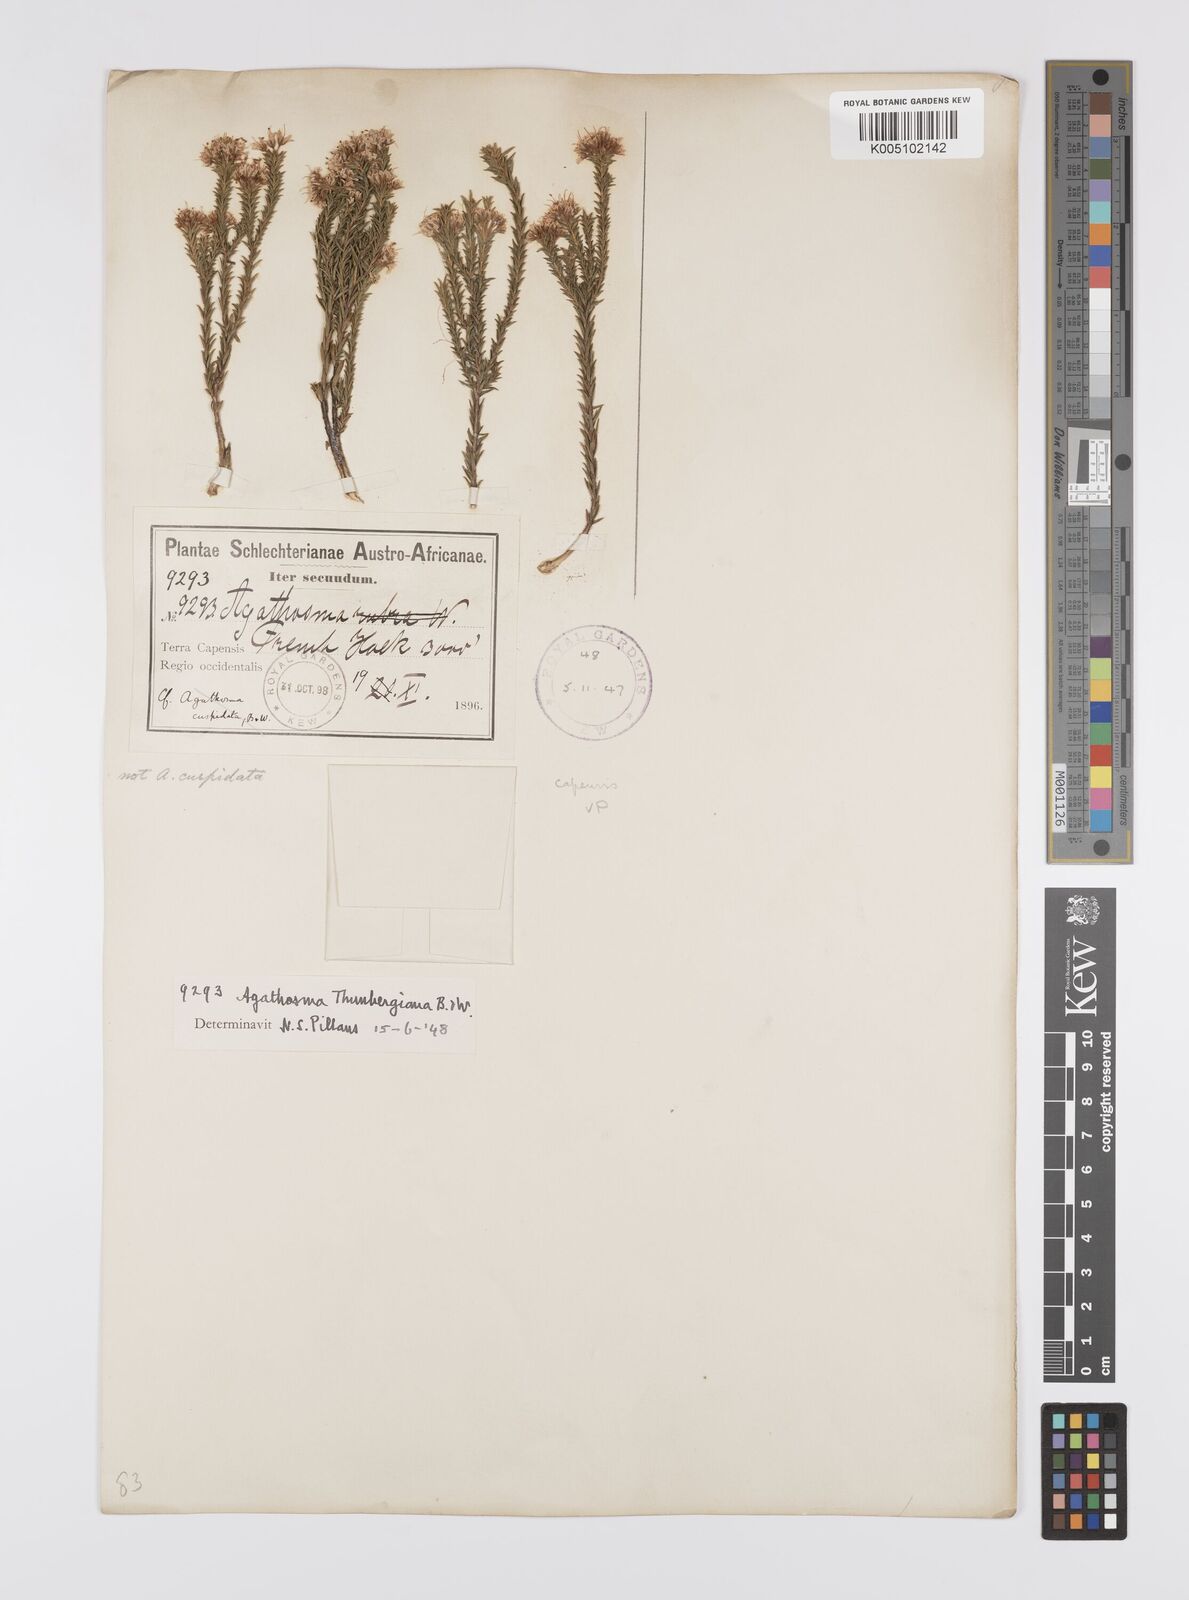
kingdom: Plantae
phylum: Tracheophyta
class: Magnoliopsida
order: Sapindales
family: Rutaceae
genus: Agathosma
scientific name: Agathosma capensis
